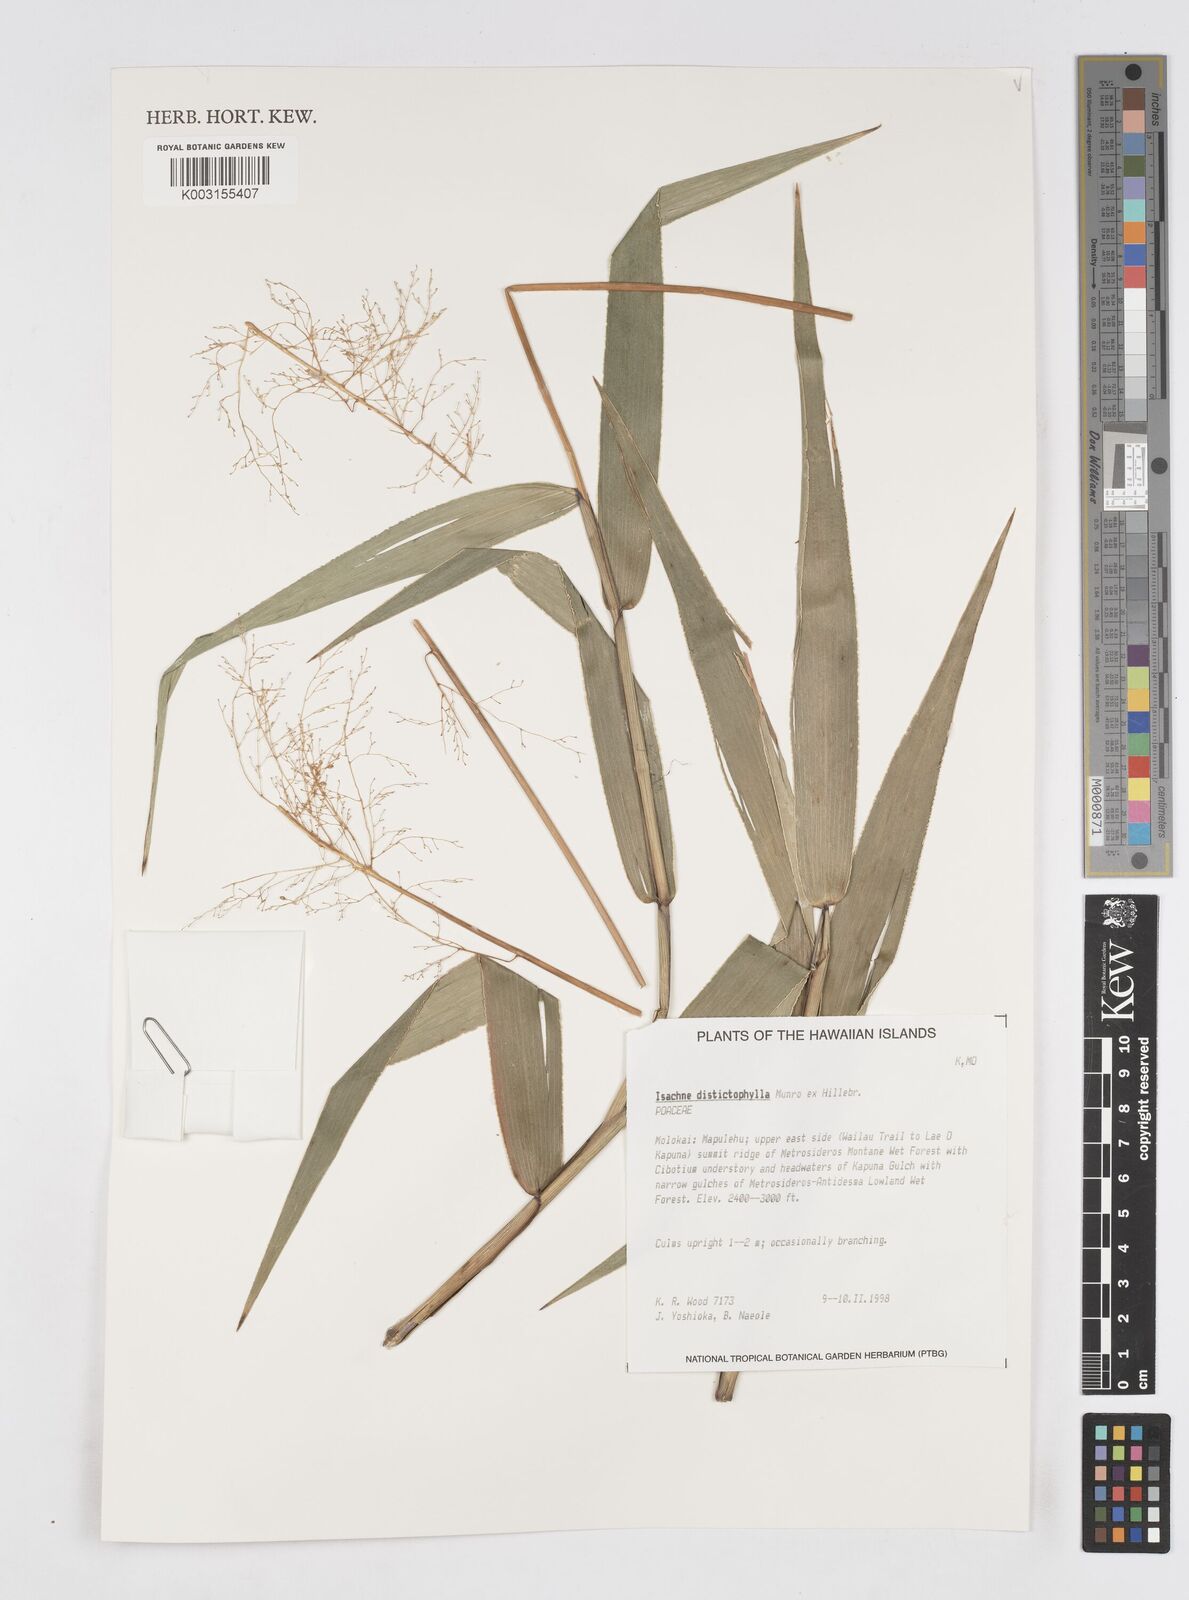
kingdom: Plantae
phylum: Tracheophyta
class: Liliopsida
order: Poales
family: Poaceae
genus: Isachne
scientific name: Isachne distichophylla
